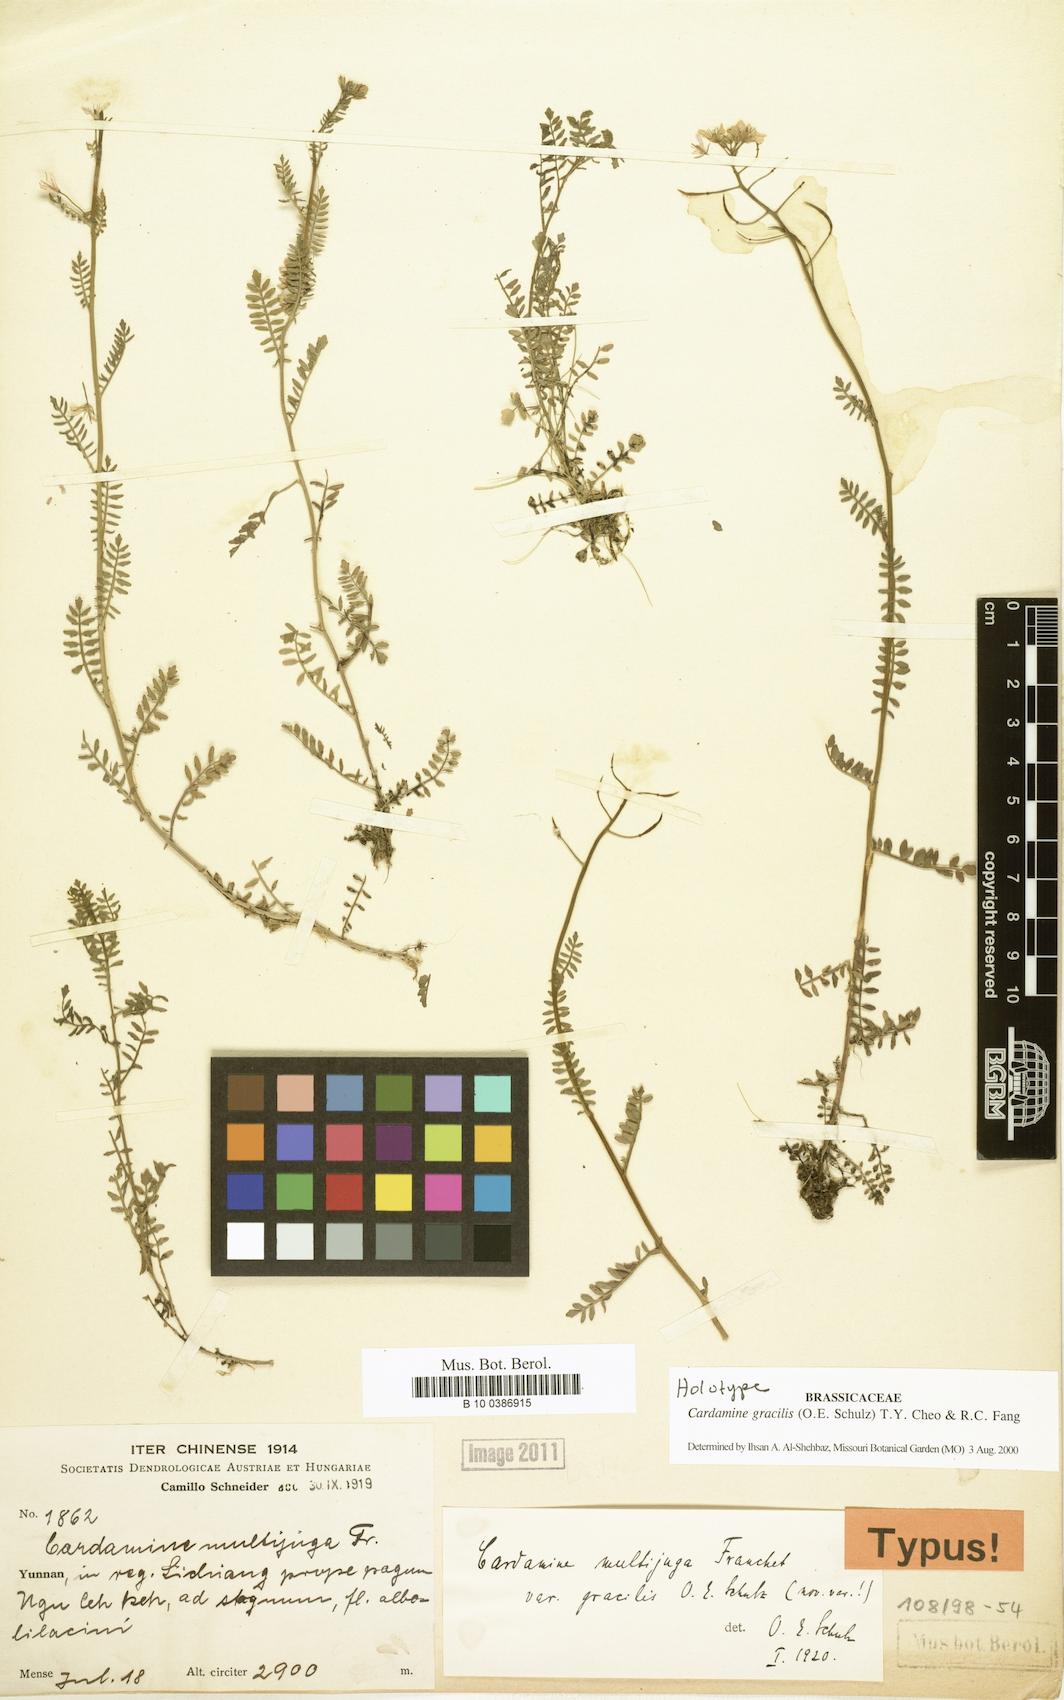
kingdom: Plantae
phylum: Tracheophyta
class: Magnoliopsida
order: Brassicales
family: Brassicaceae
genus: Cardamine
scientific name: Cardamine gracilis
